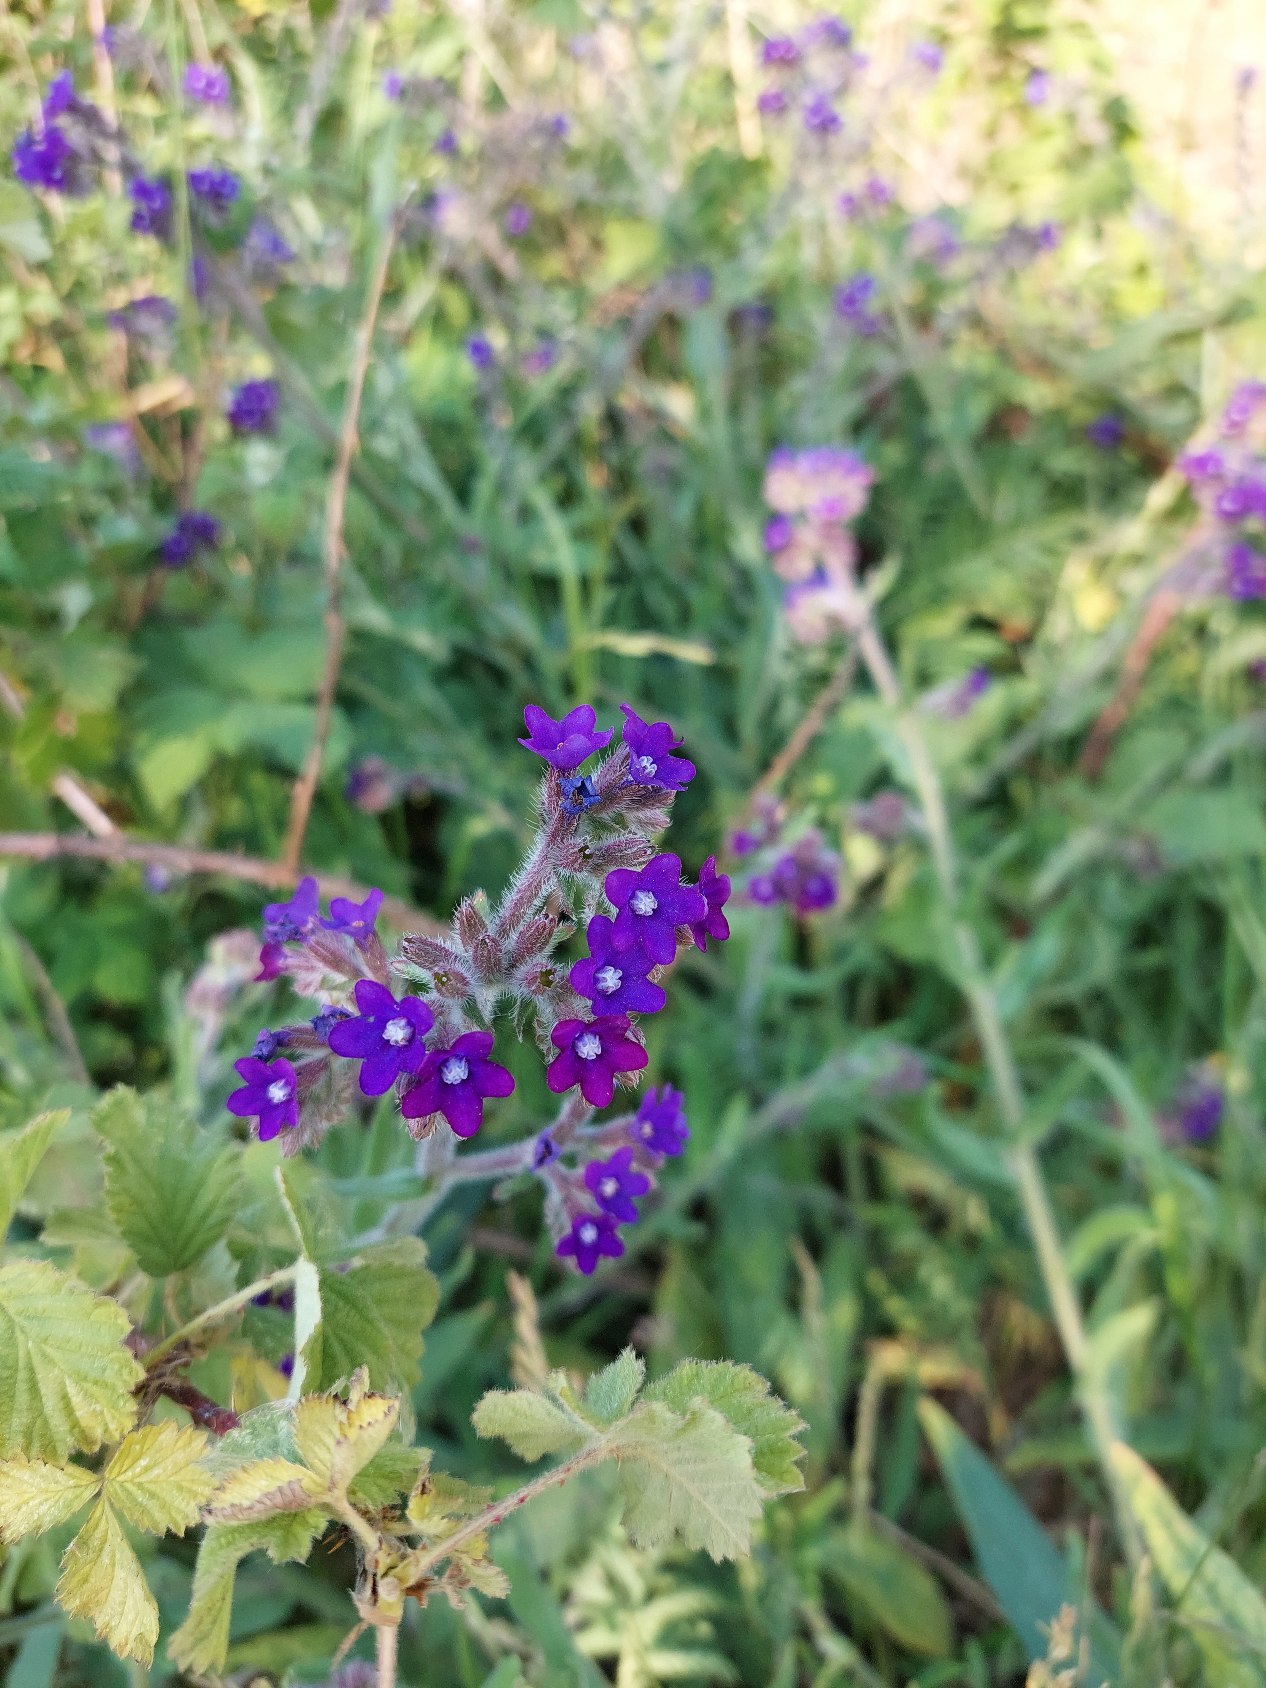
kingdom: Plantae
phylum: Tracheophyta
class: Magnoliopsida
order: Boraginales
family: Boraginaceae
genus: Anchusa
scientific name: Anchusa officinalis
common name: Læge-oksetunge
